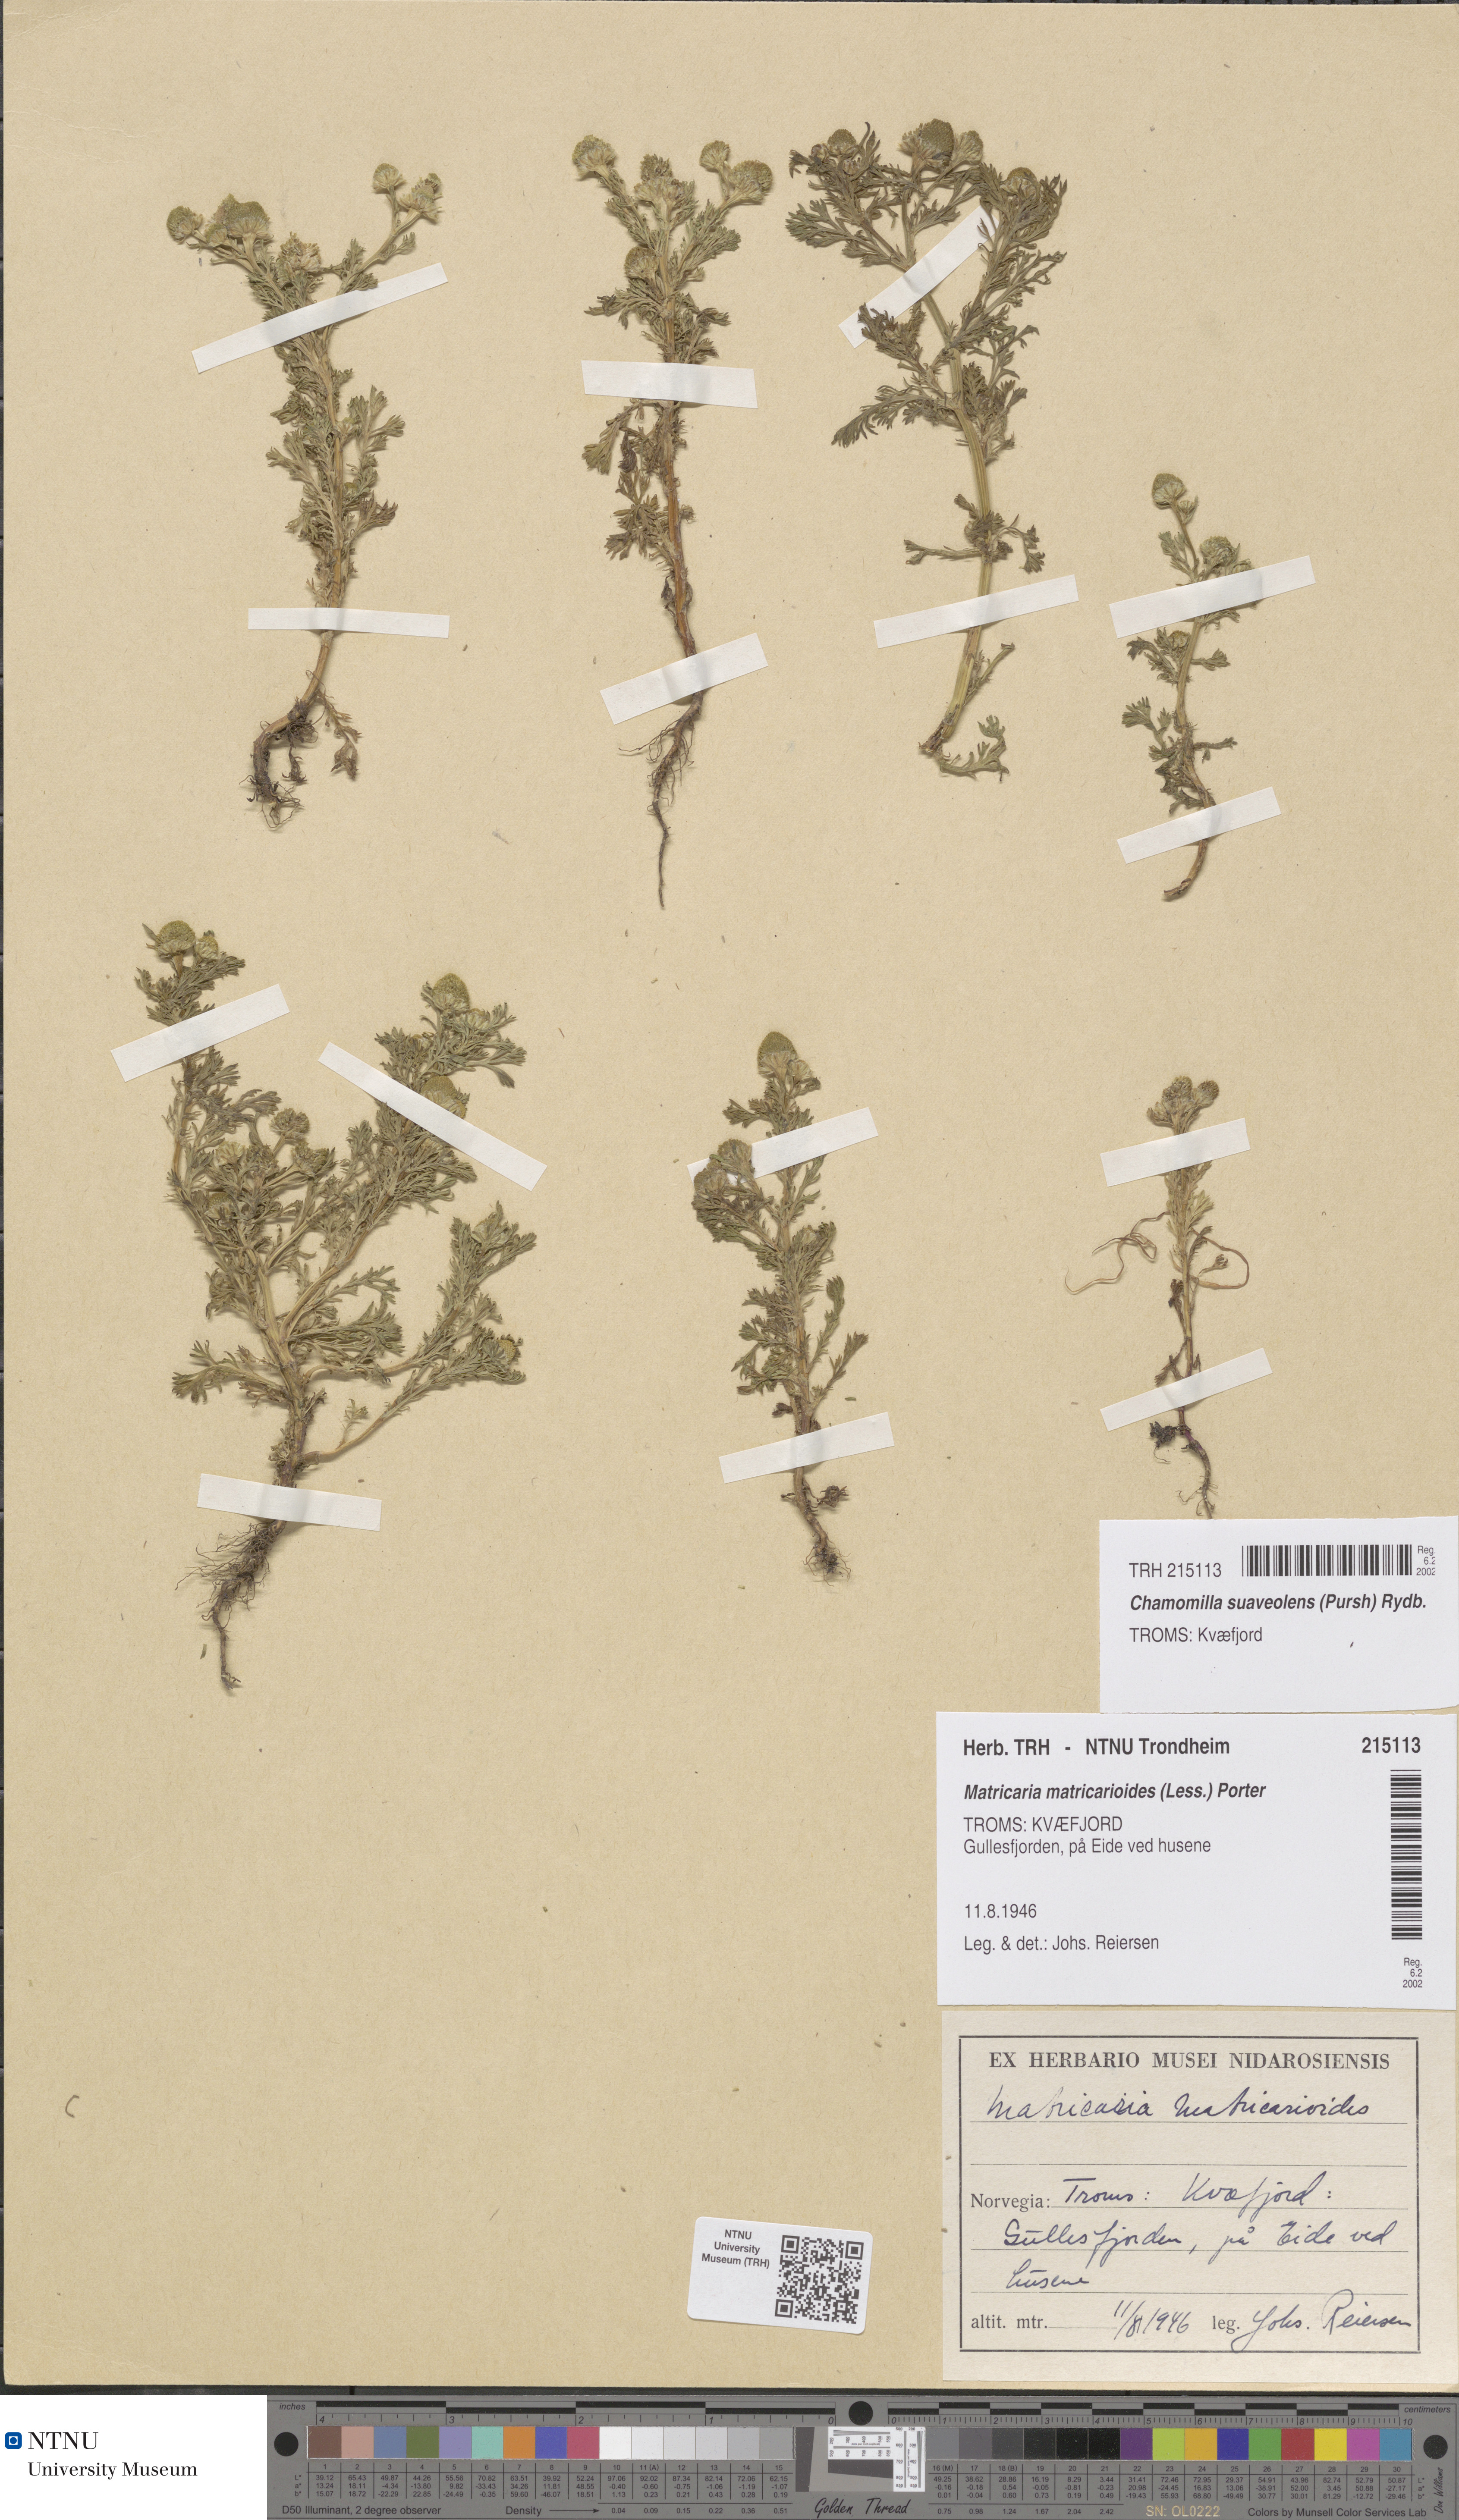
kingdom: Plantae
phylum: Tracheophyta
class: Magnoliopsida
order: Asterales
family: Asteraceae
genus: Matricaria
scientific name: Matricaria discoidea
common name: Disc mayweed
